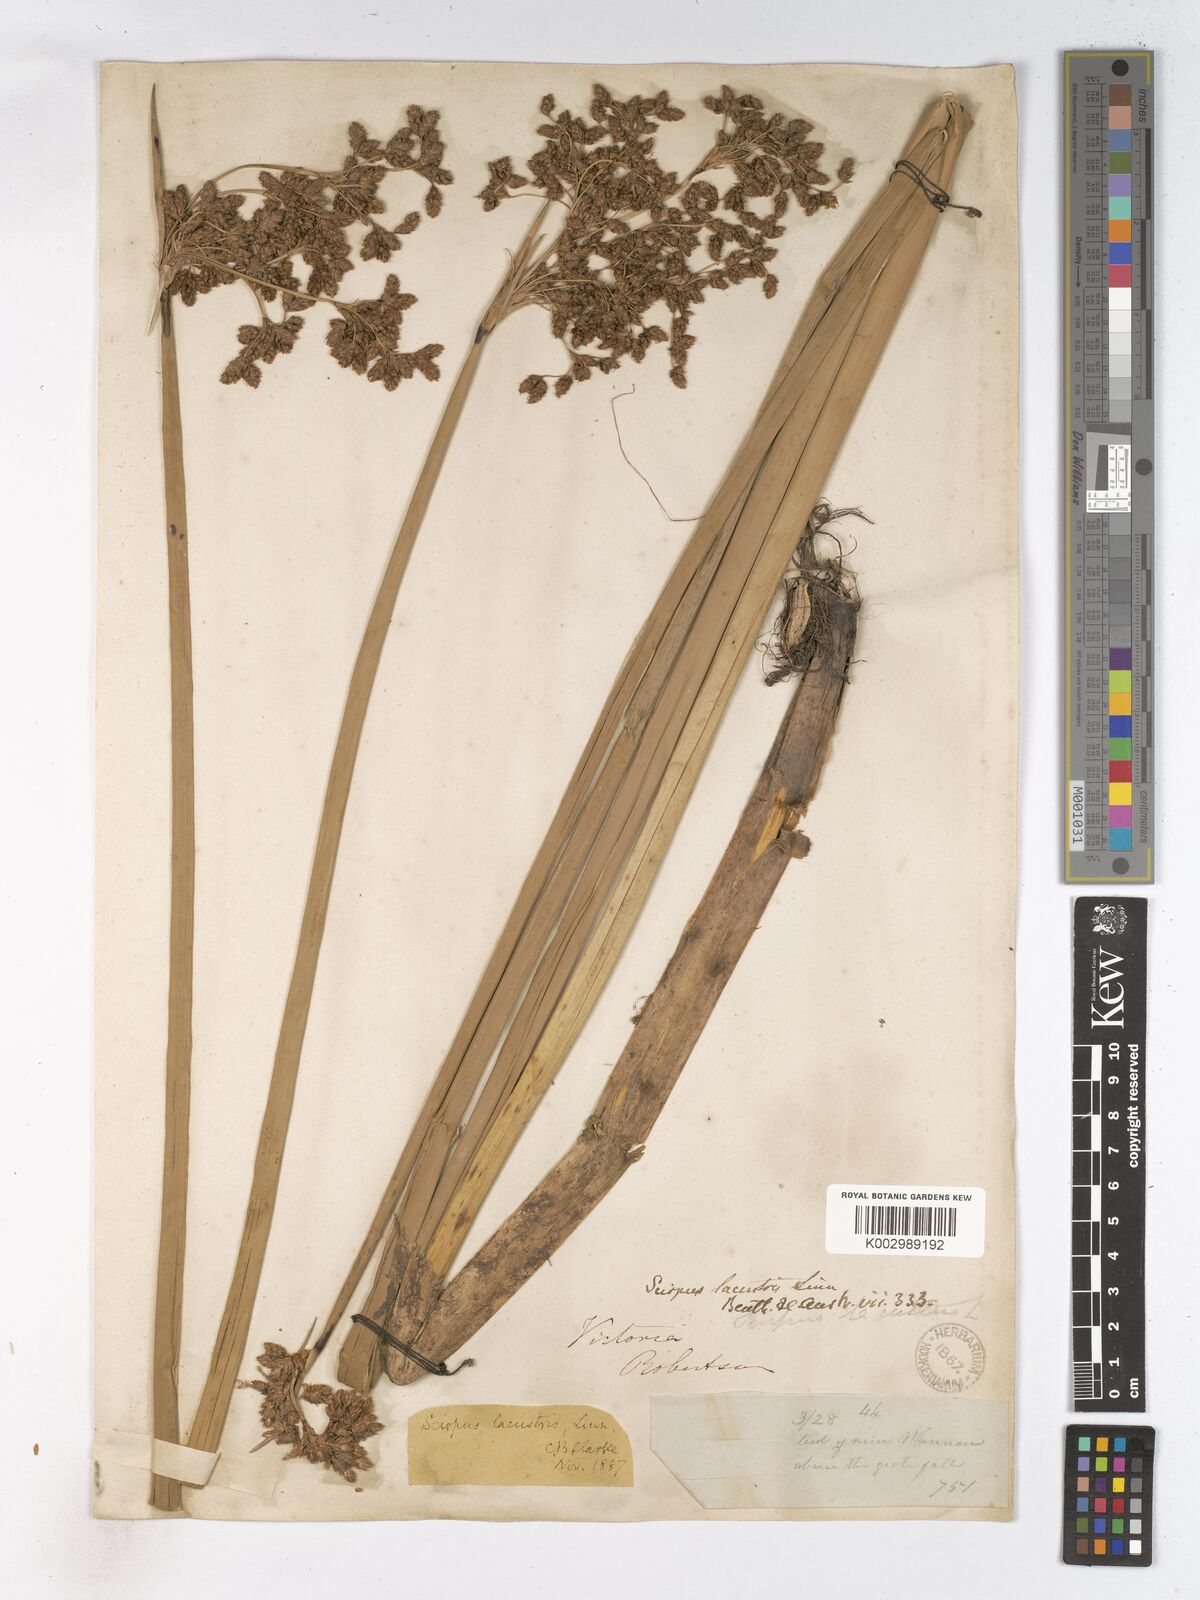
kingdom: Plantae
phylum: Tracheophyta
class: Liliopsida
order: Poales
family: Cyperaceae
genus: Schoenoplectus
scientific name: Schoenoplectus lacustris
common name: Common club-rush
